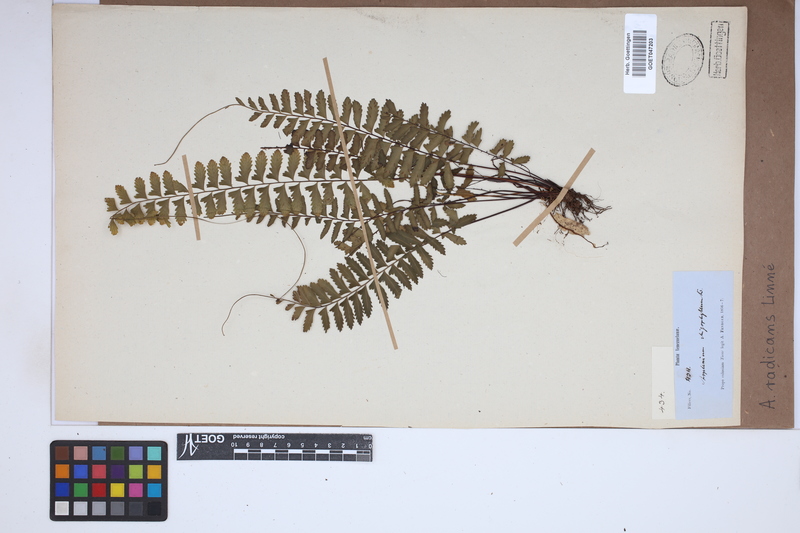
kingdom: Plantae
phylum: Tracheophyta
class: Polypodiopsida
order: Polypodiales
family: Aspleniaceae
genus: Asplenium
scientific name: Asplenium radicans
